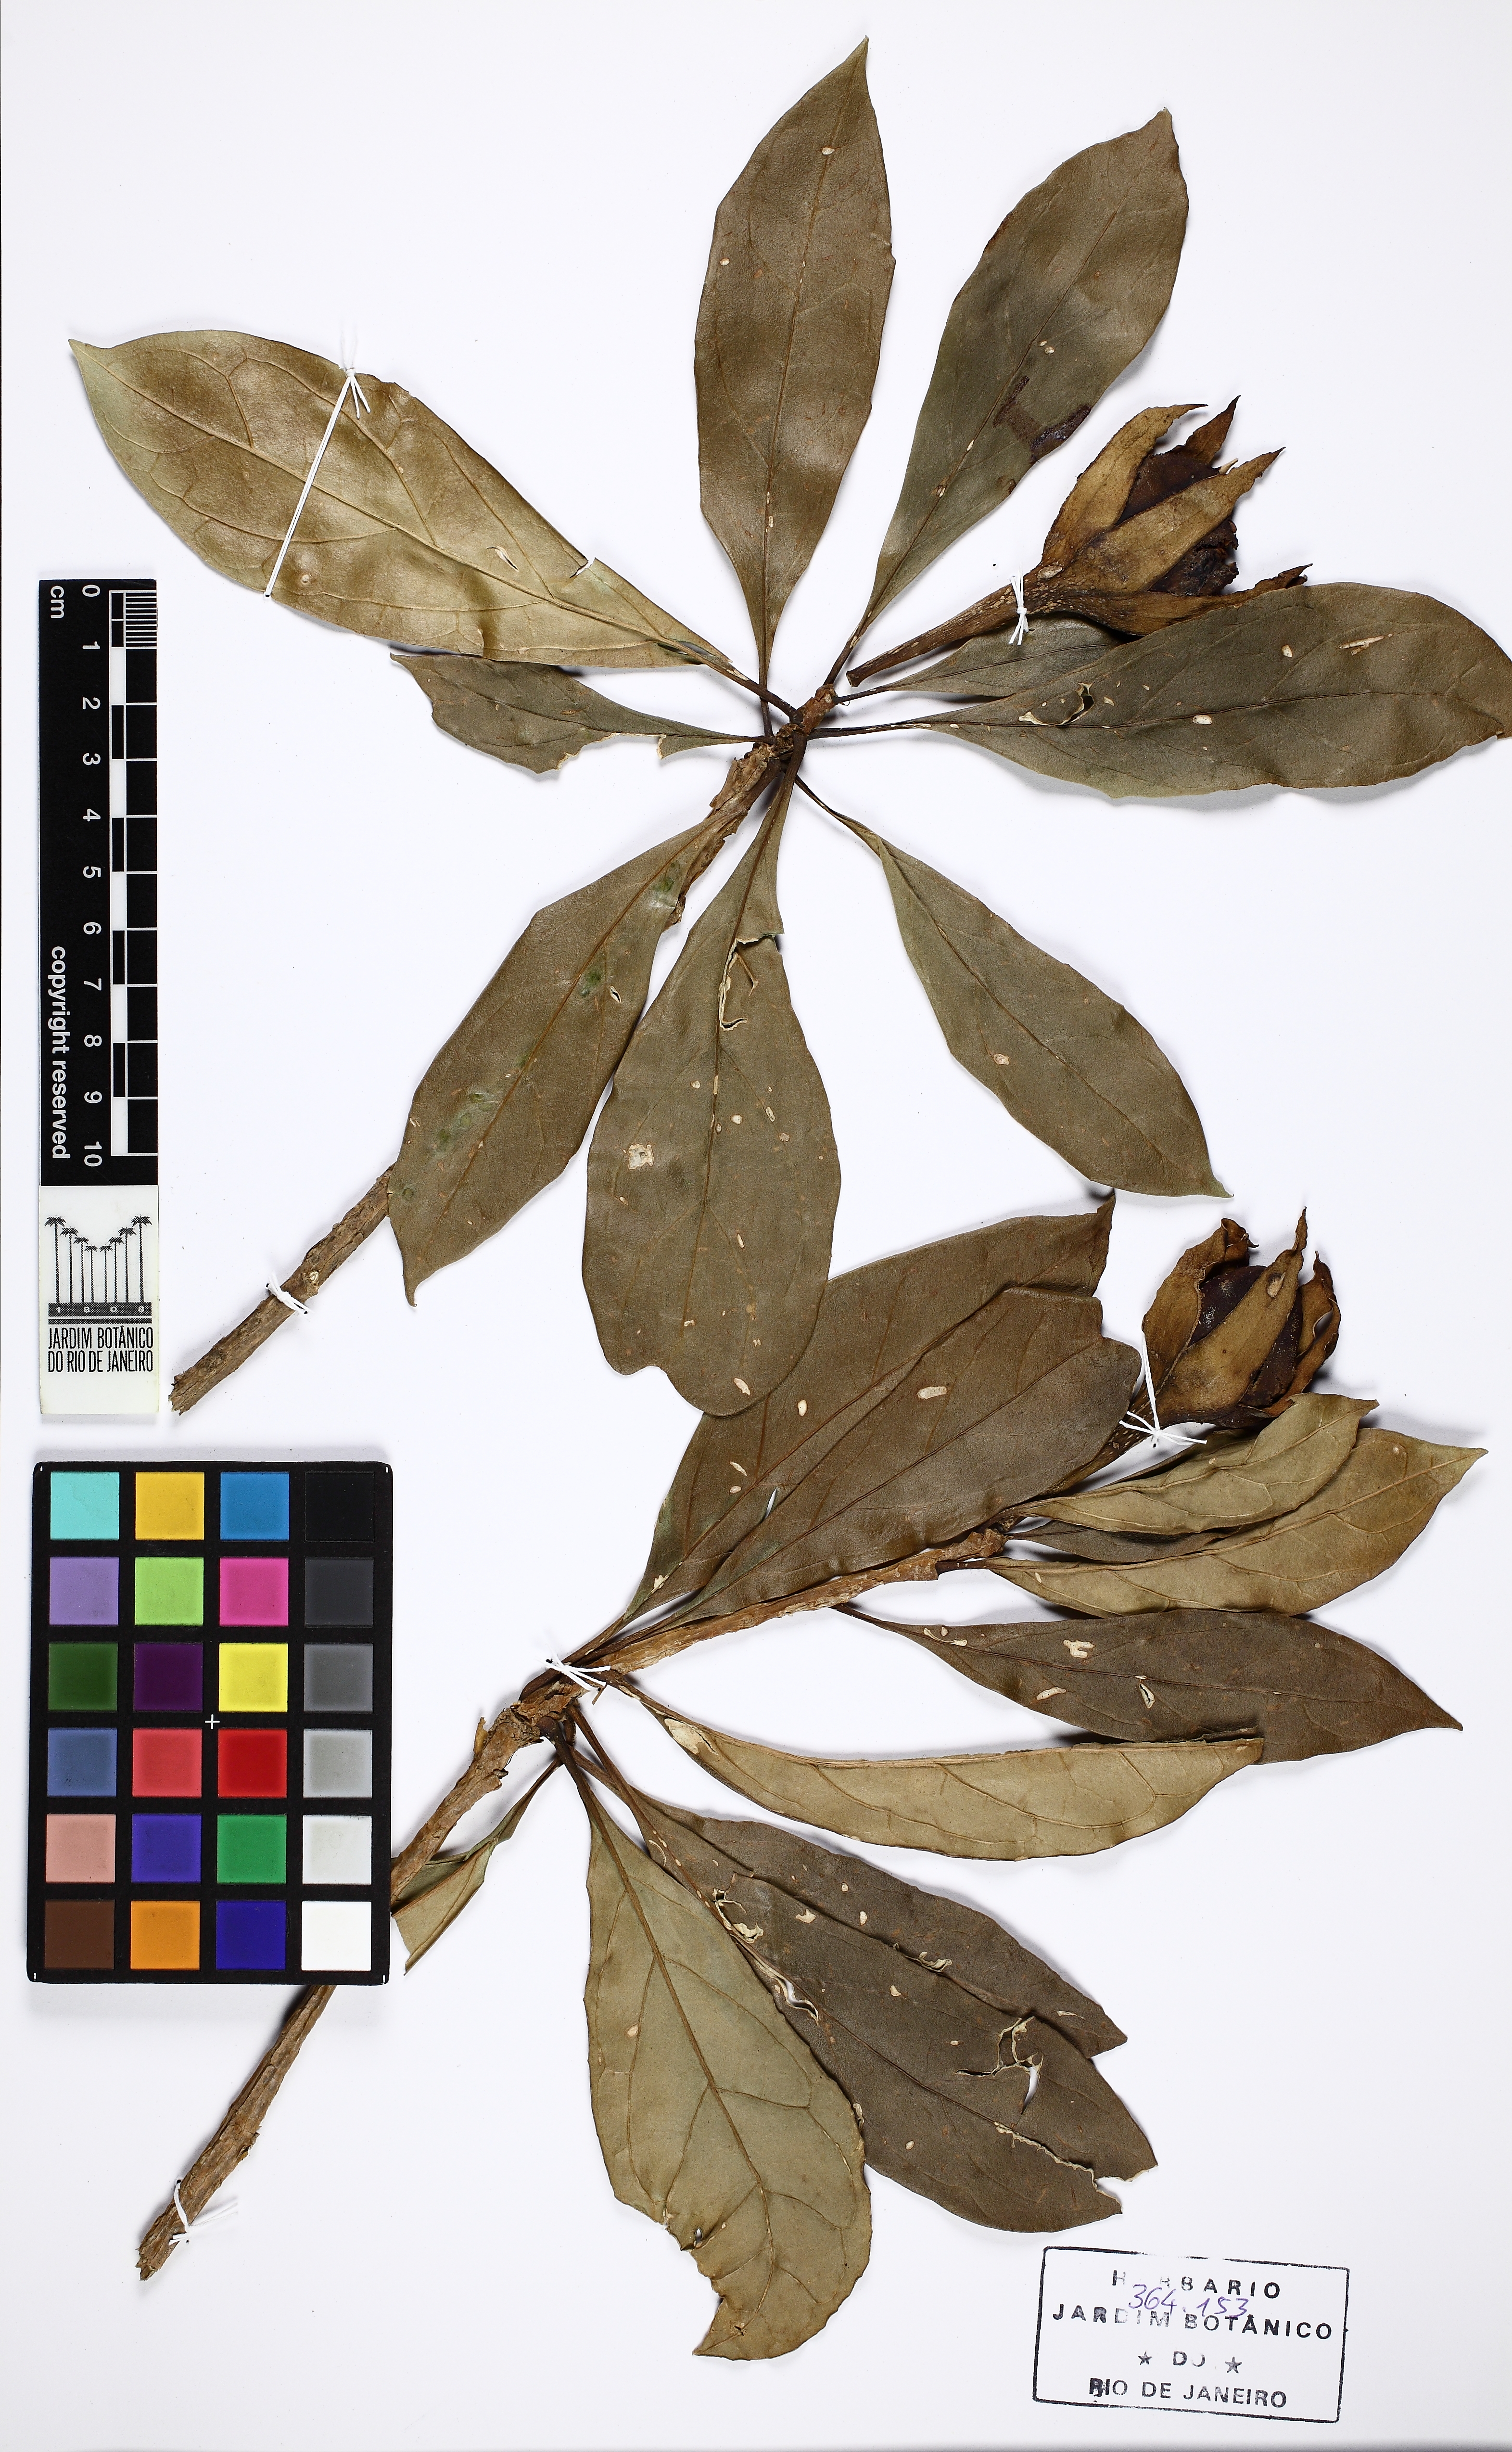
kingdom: Plantae
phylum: Tracheophyta
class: Magnoliopsida
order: Solanales
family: Solanaceae
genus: Dyssochroma
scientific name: Dyssochroma viridiflorum
